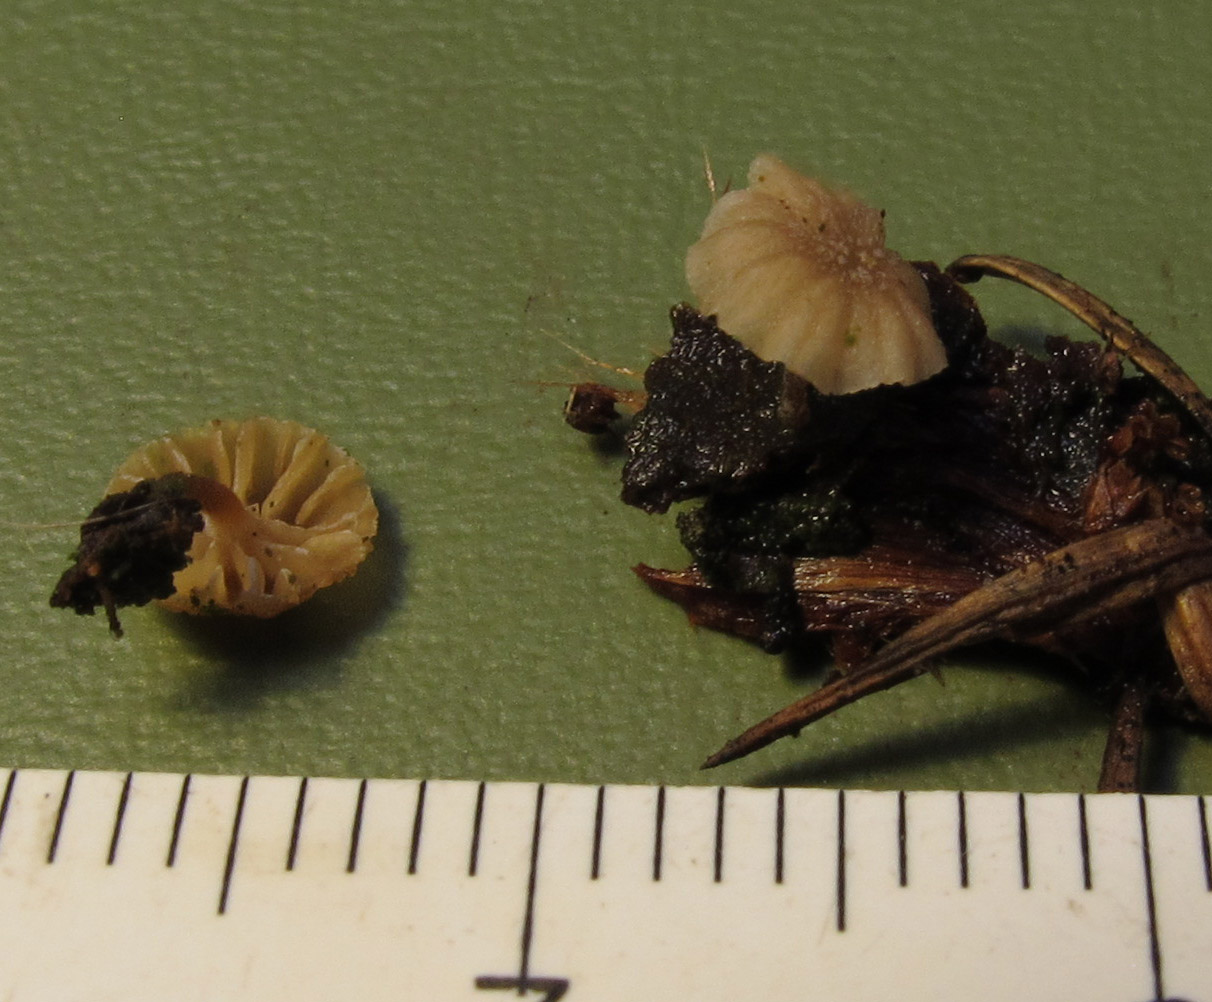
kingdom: Fungi
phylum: Basidiomycota
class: Agaricomycetes
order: Agaricales
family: Mycenaceae
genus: Mycena
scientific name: Mycena juniperina
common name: ene-Huesvamp
